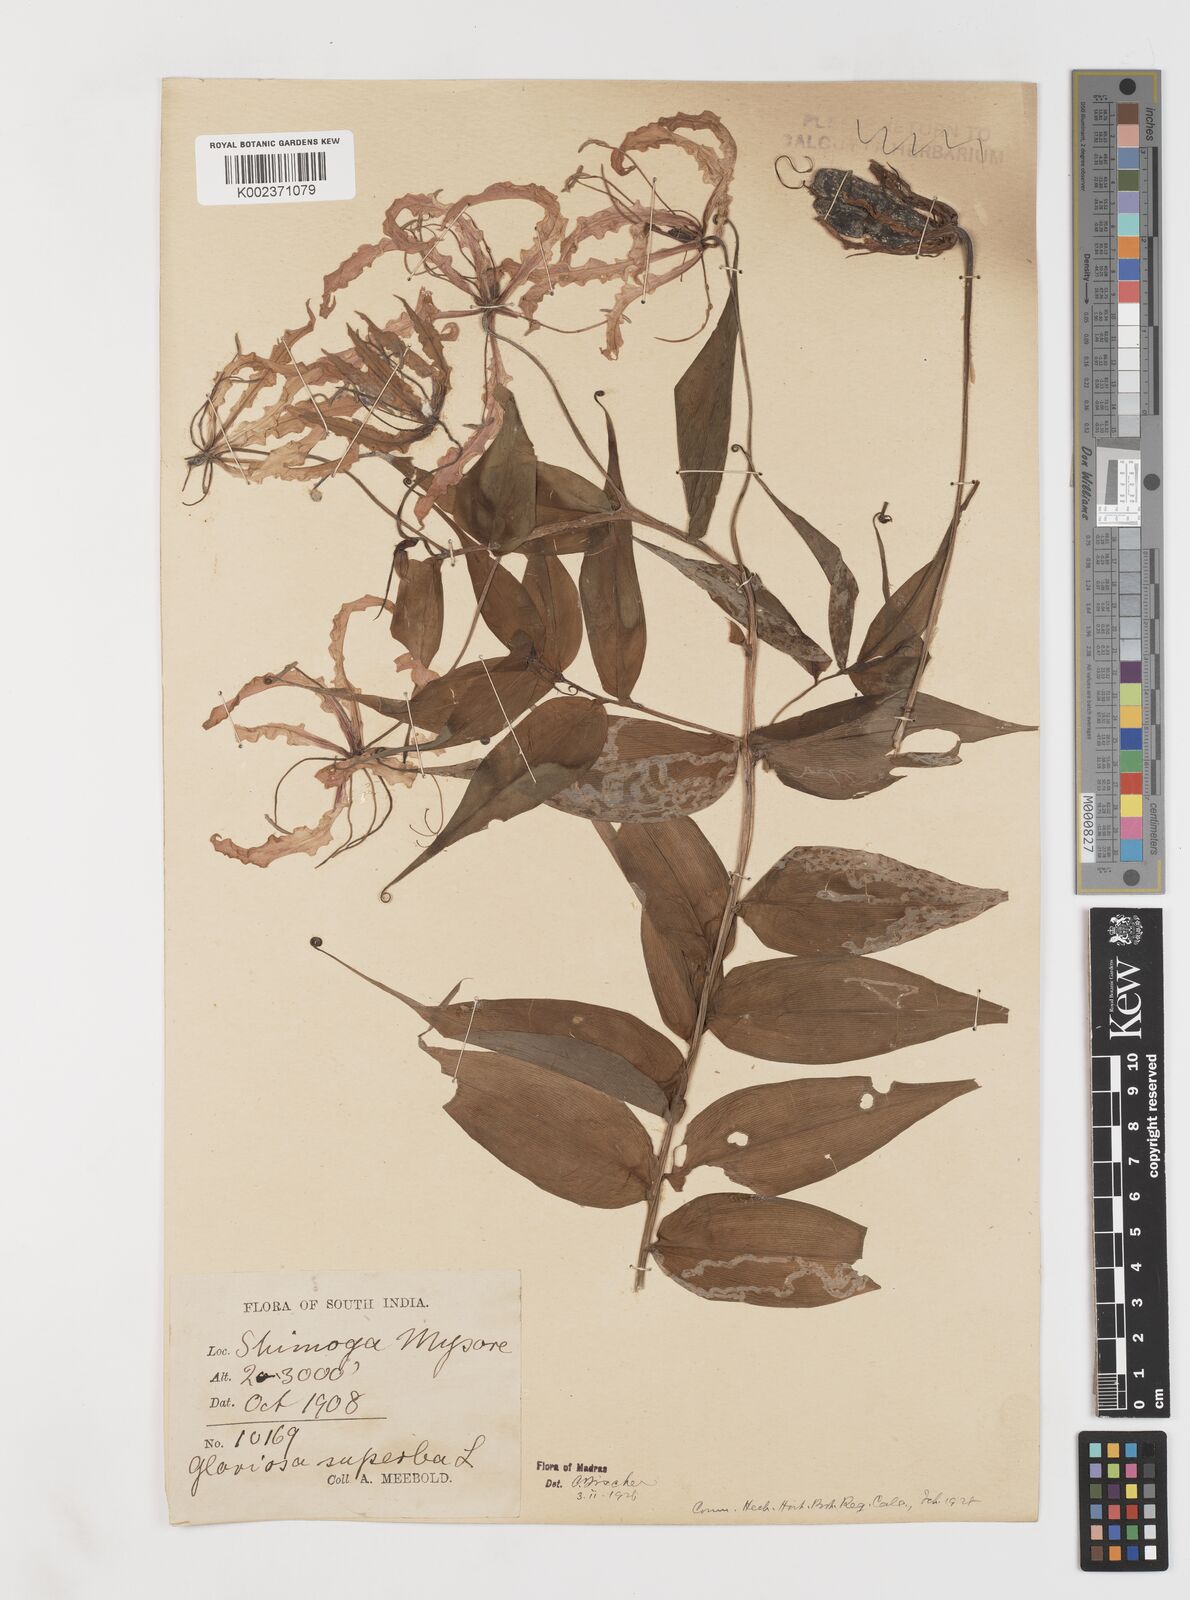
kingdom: Plantae
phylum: Tracheophyta
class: Liliopsida
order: Liliales
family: Colchicaceae
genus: Gloriosa
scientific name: Gloriosa superba
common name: Flame lily
